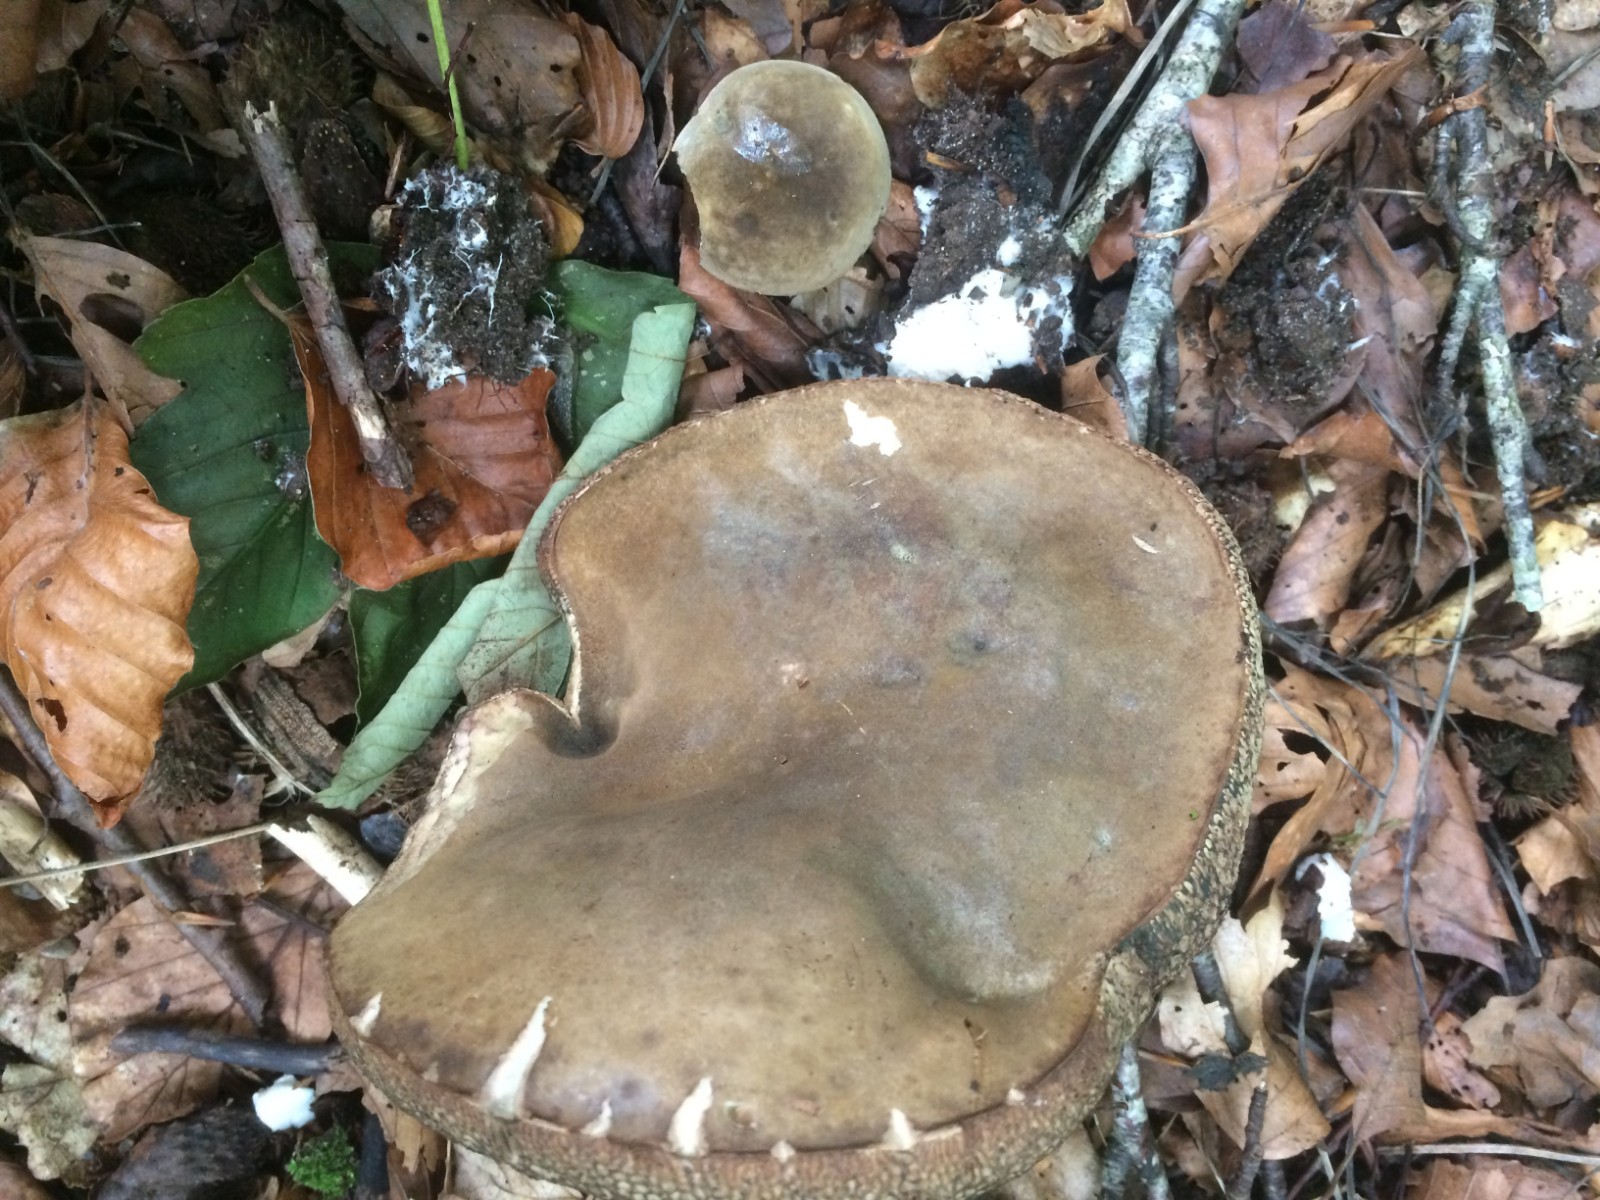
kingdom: Fungi
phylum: Basidiomycota
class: Agaricomycetes
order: Boletales
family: Boletaceae
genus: Porphyrellus
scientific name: Porphyrellus porphyrosporus
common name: sodrørhat
